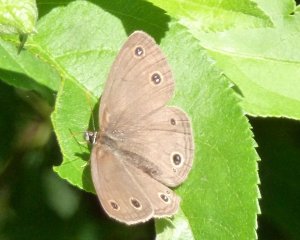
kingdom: Animalia
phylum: Arthropoda
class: Insecta
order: Lepidoptera
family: Nymphalidae
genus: Euptychia
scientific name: Euptychia cymela
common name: Little Wood Satyr
